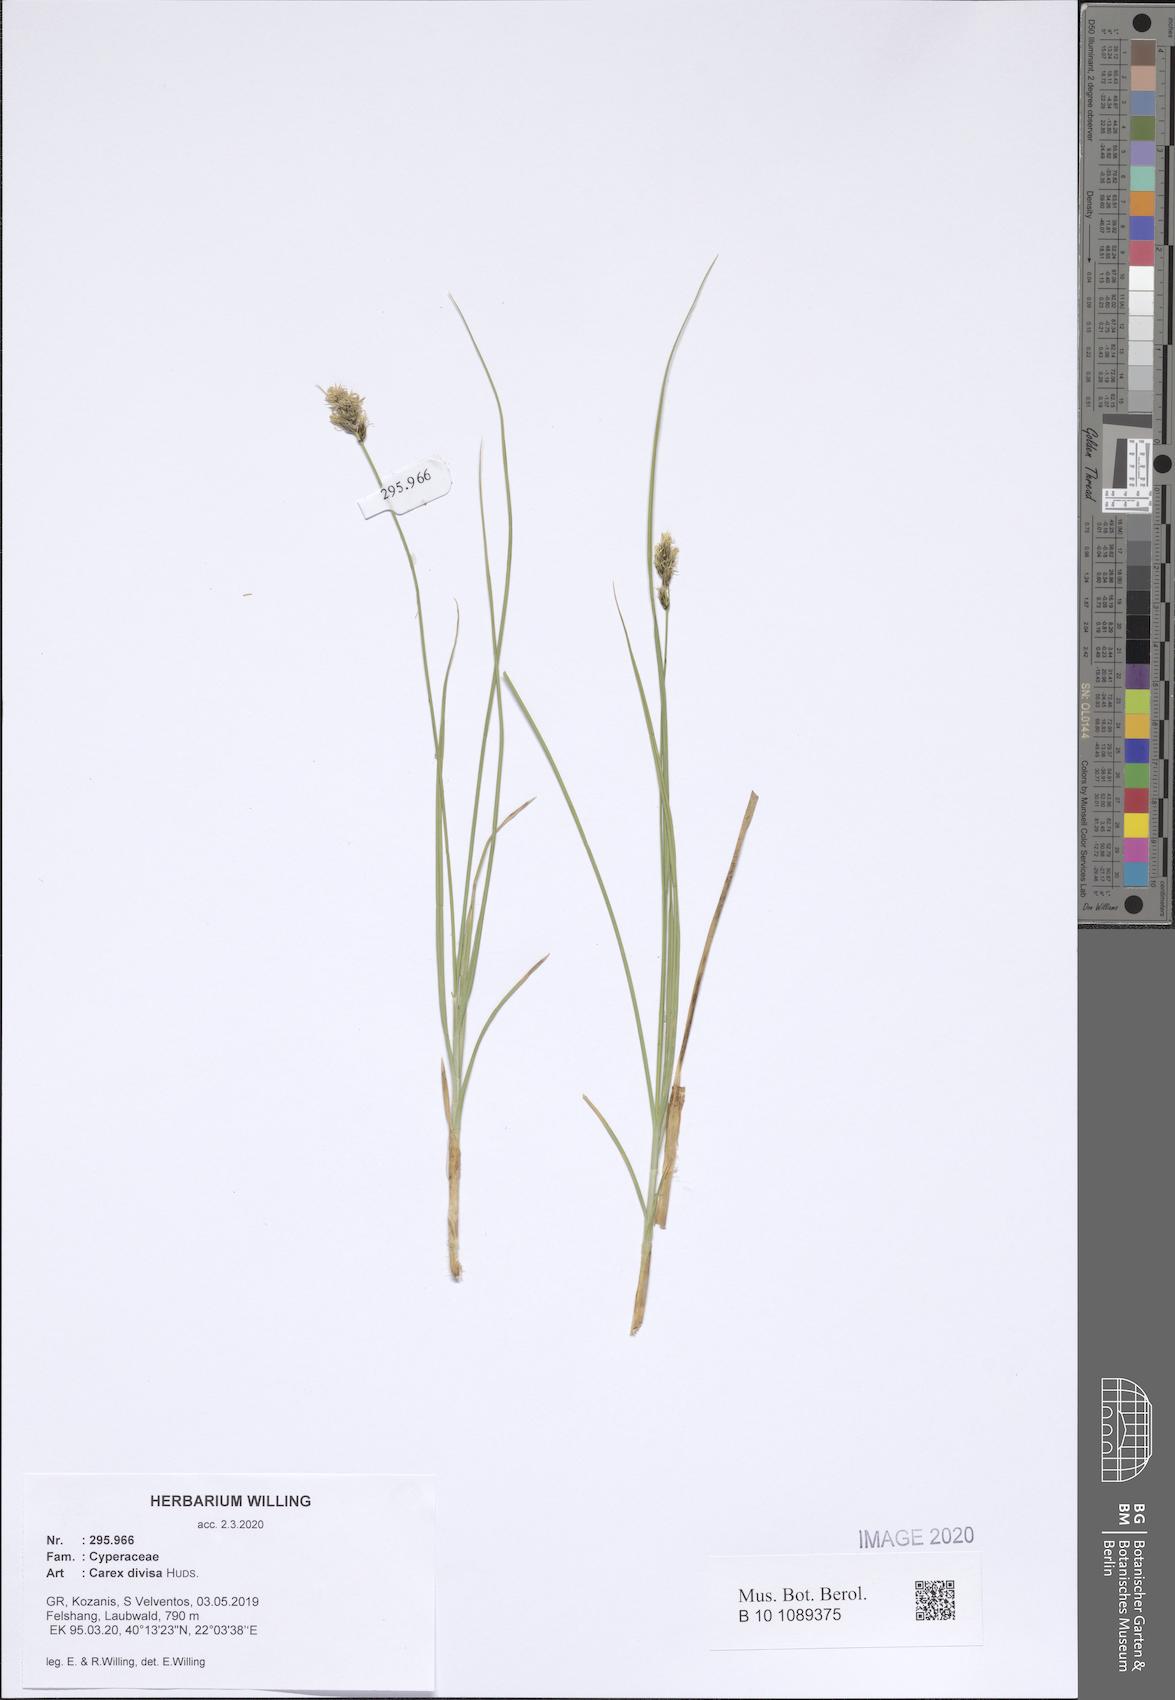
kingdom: Plantae
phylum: Tracheophyta
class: Liliopsida
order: Poales
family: Cyperaceae
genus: Carex
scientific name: Carex divisa
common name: Divided sedge
